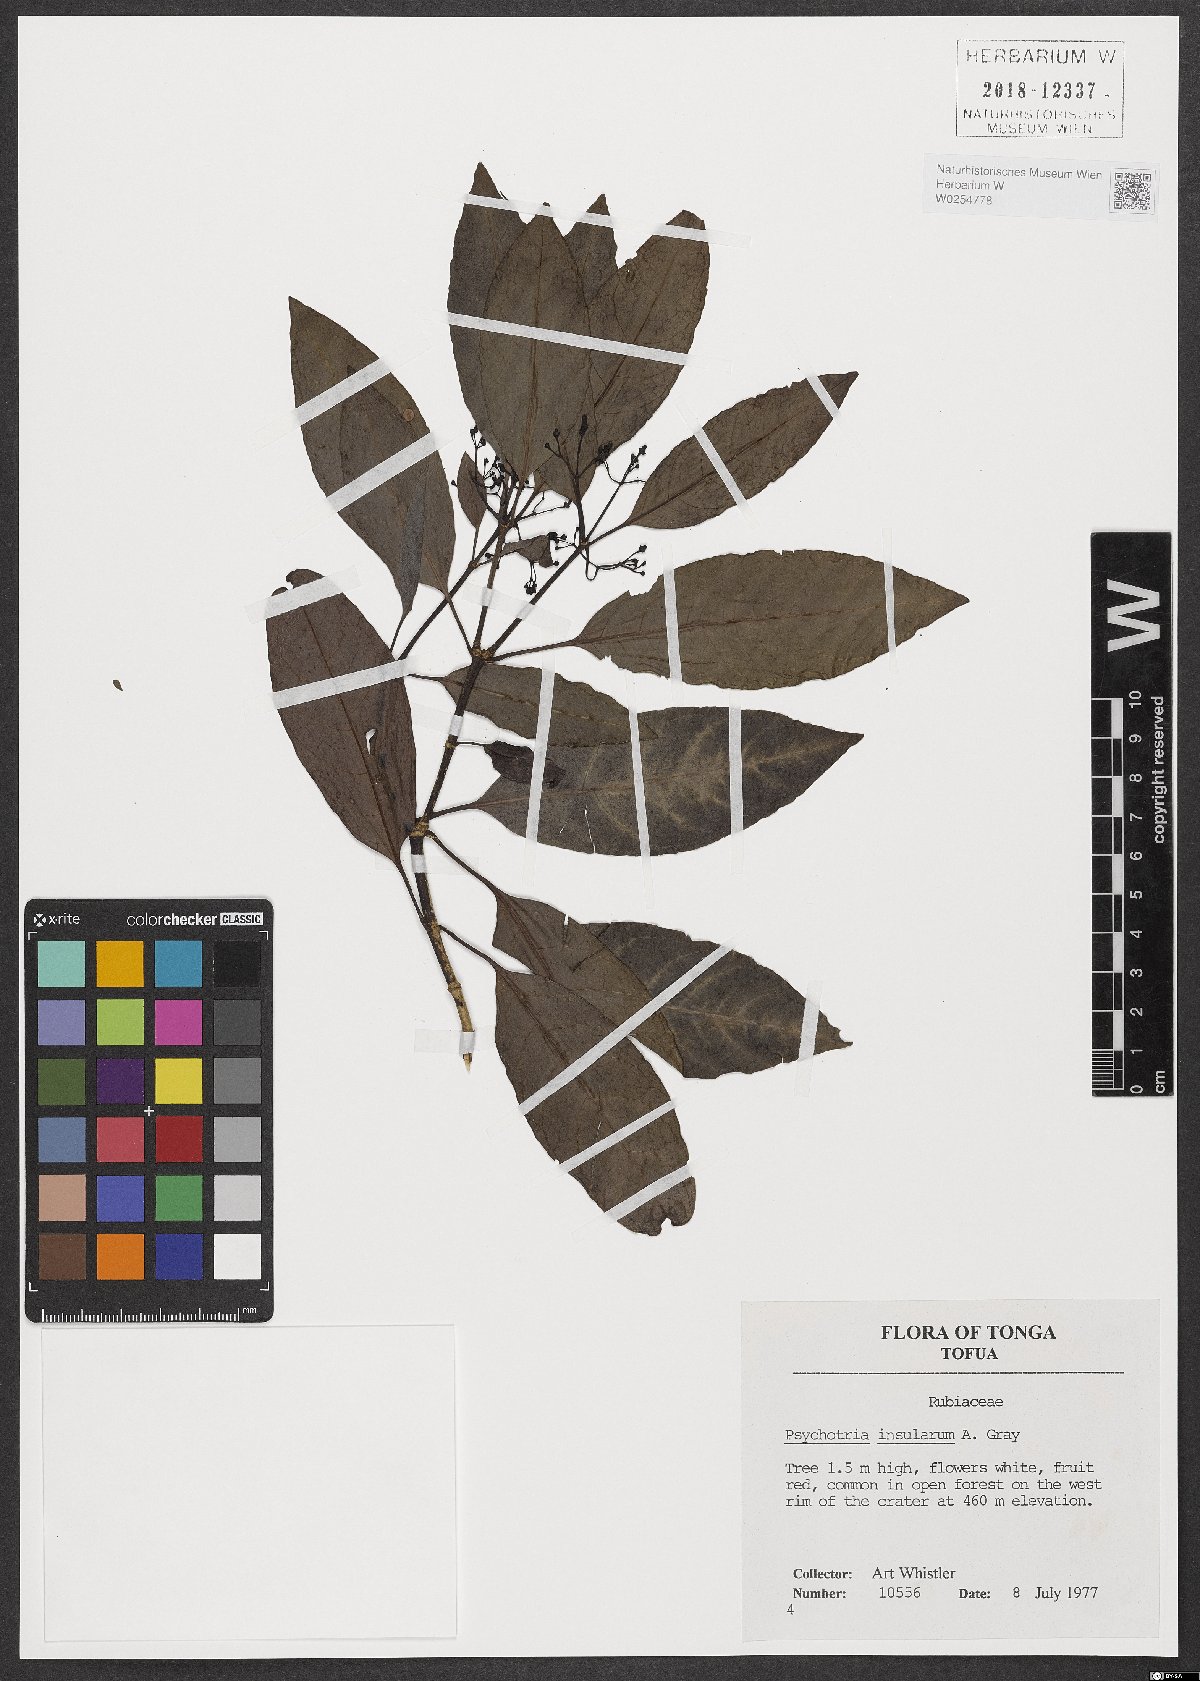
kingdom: Plantae
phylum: Tracheophyta
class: Magnoliopsida
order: Gentianales
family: Rubiaceae
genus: Psychotria
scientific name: Psychotria insularum
